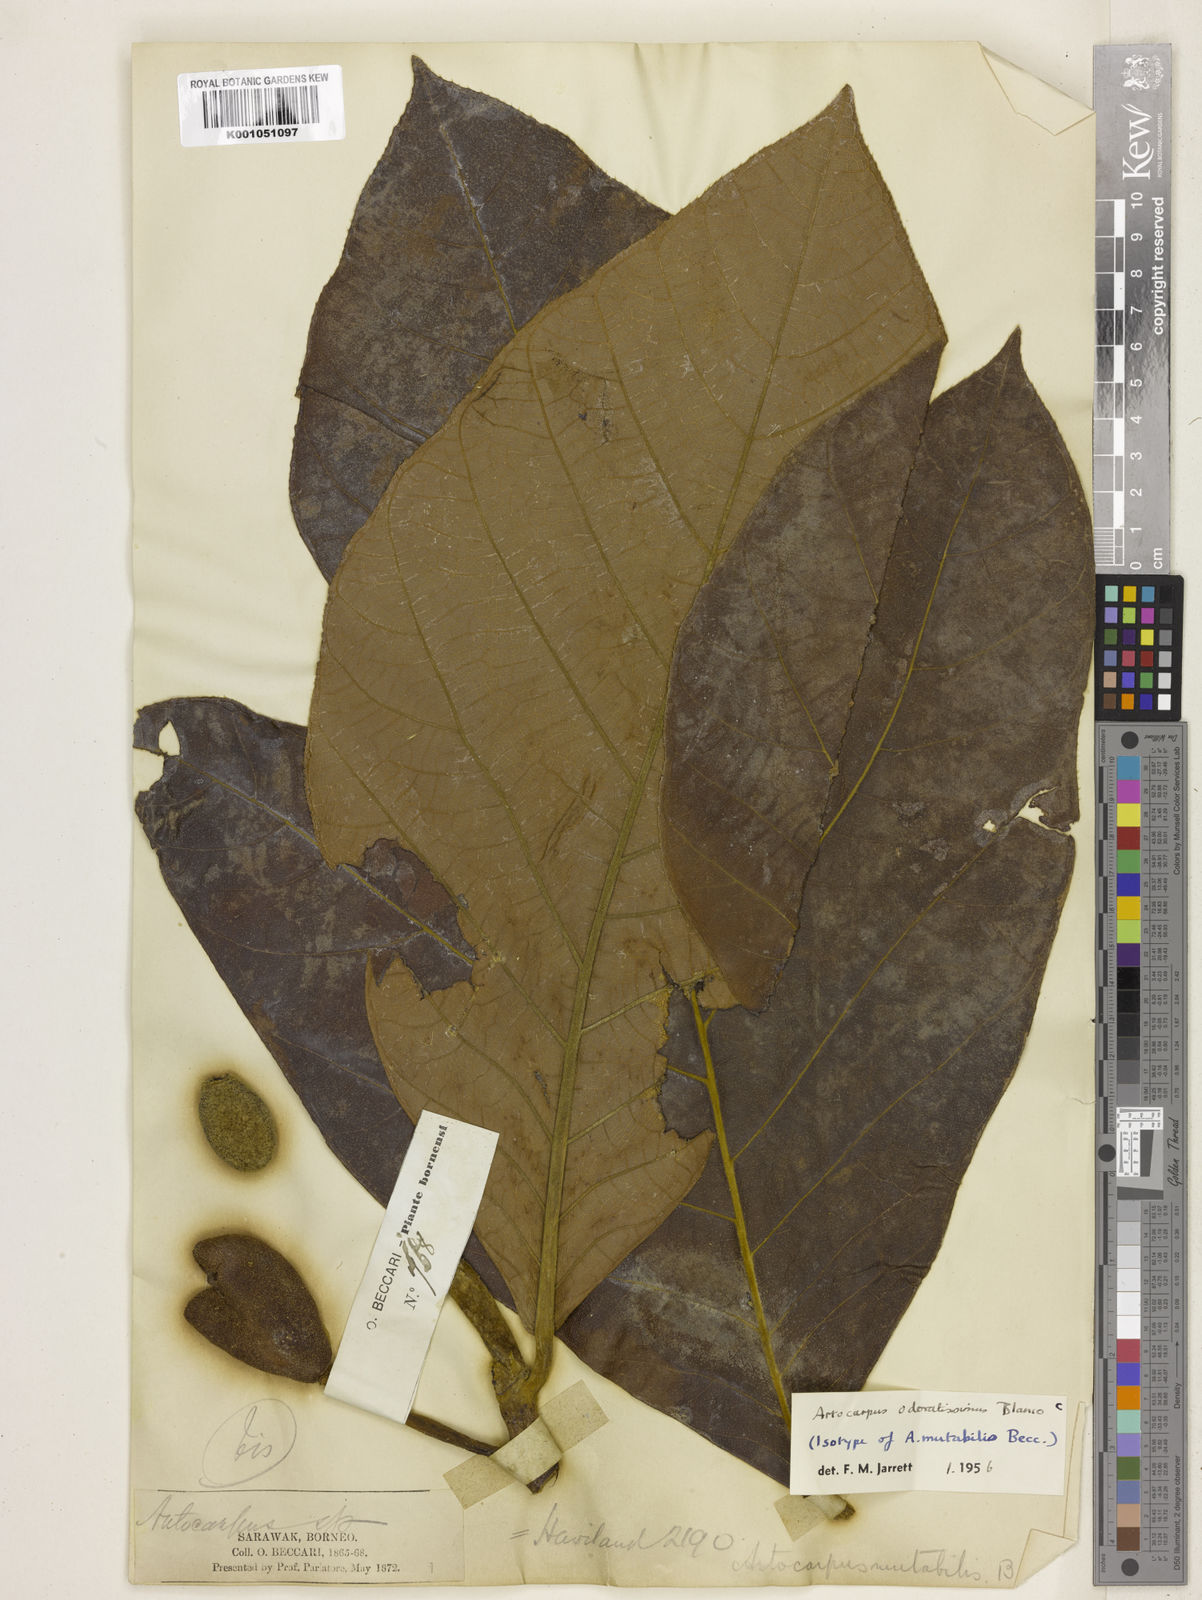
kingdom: Plantae
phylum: Tracheophyta
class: Magnoliopsida
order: Rosales
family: Moraceae
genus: Artocarpus
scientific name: Artocarpus odoratissimus
